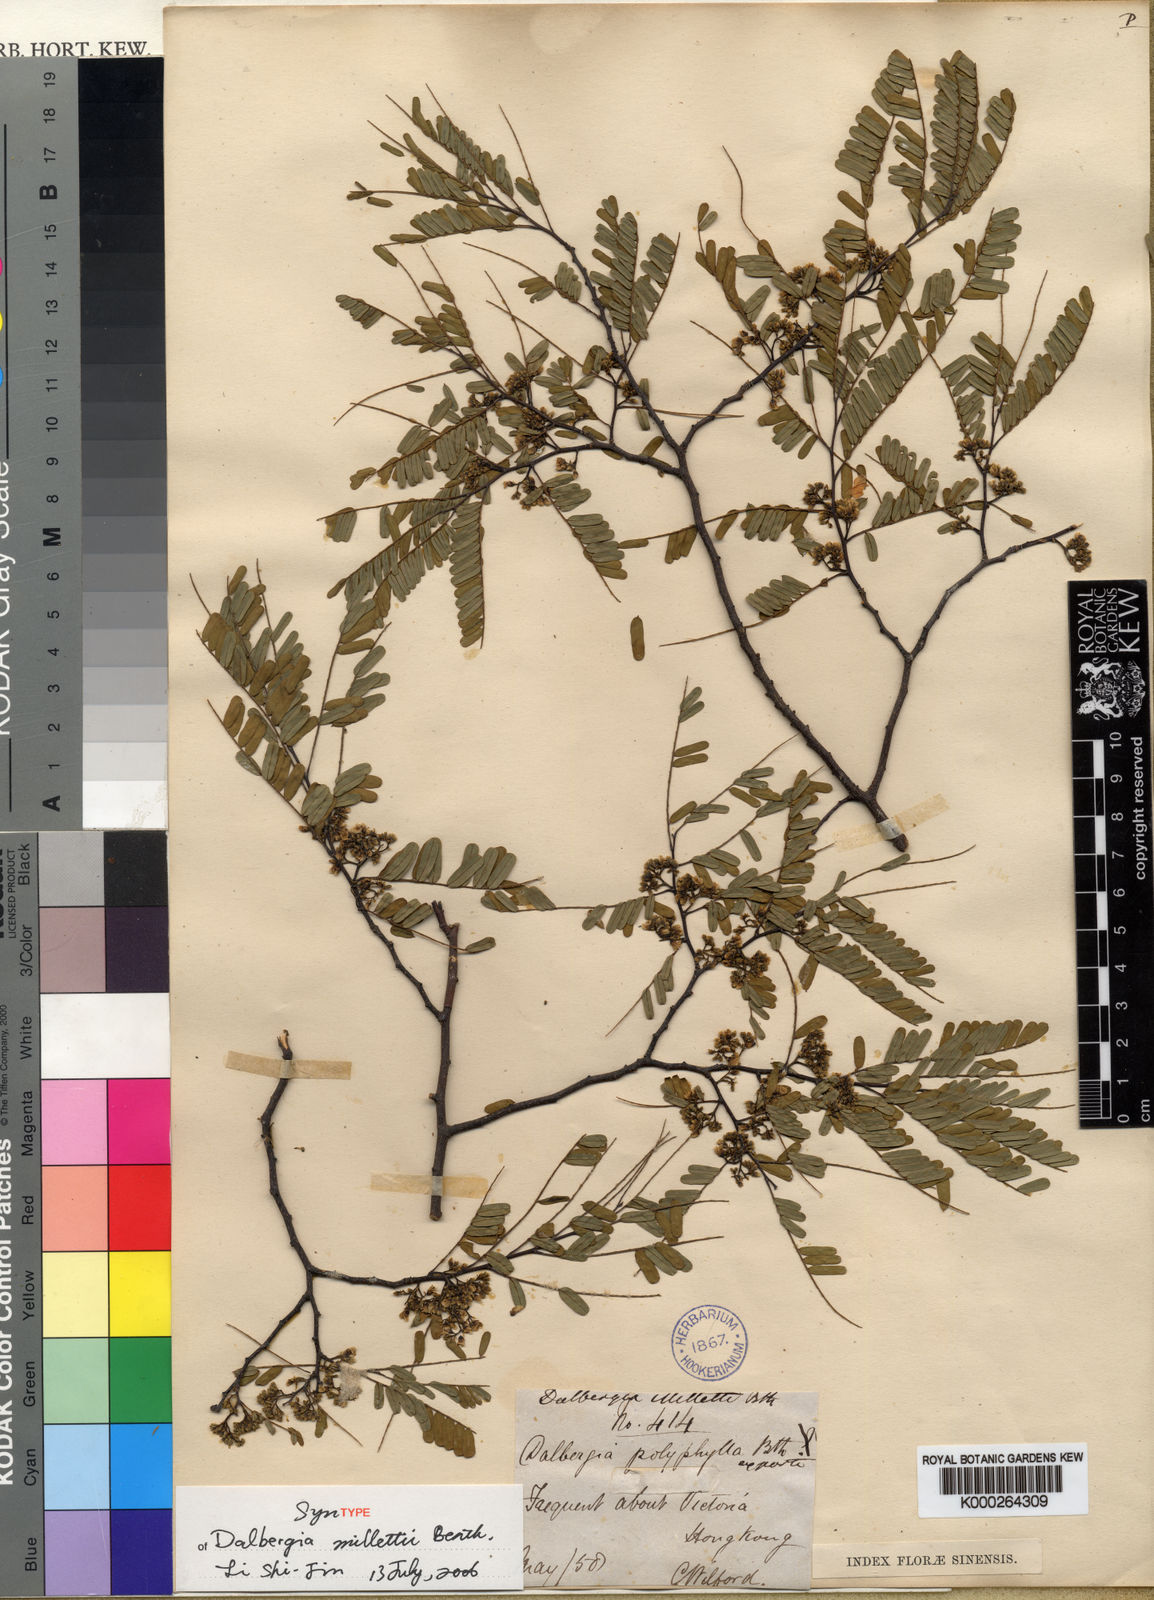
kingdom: Plantae
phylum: Tracheophyta
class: Magnoliopsida
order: Fabales
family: Fabaceae
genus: Dalbergia
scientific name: Dalbergia millettii
